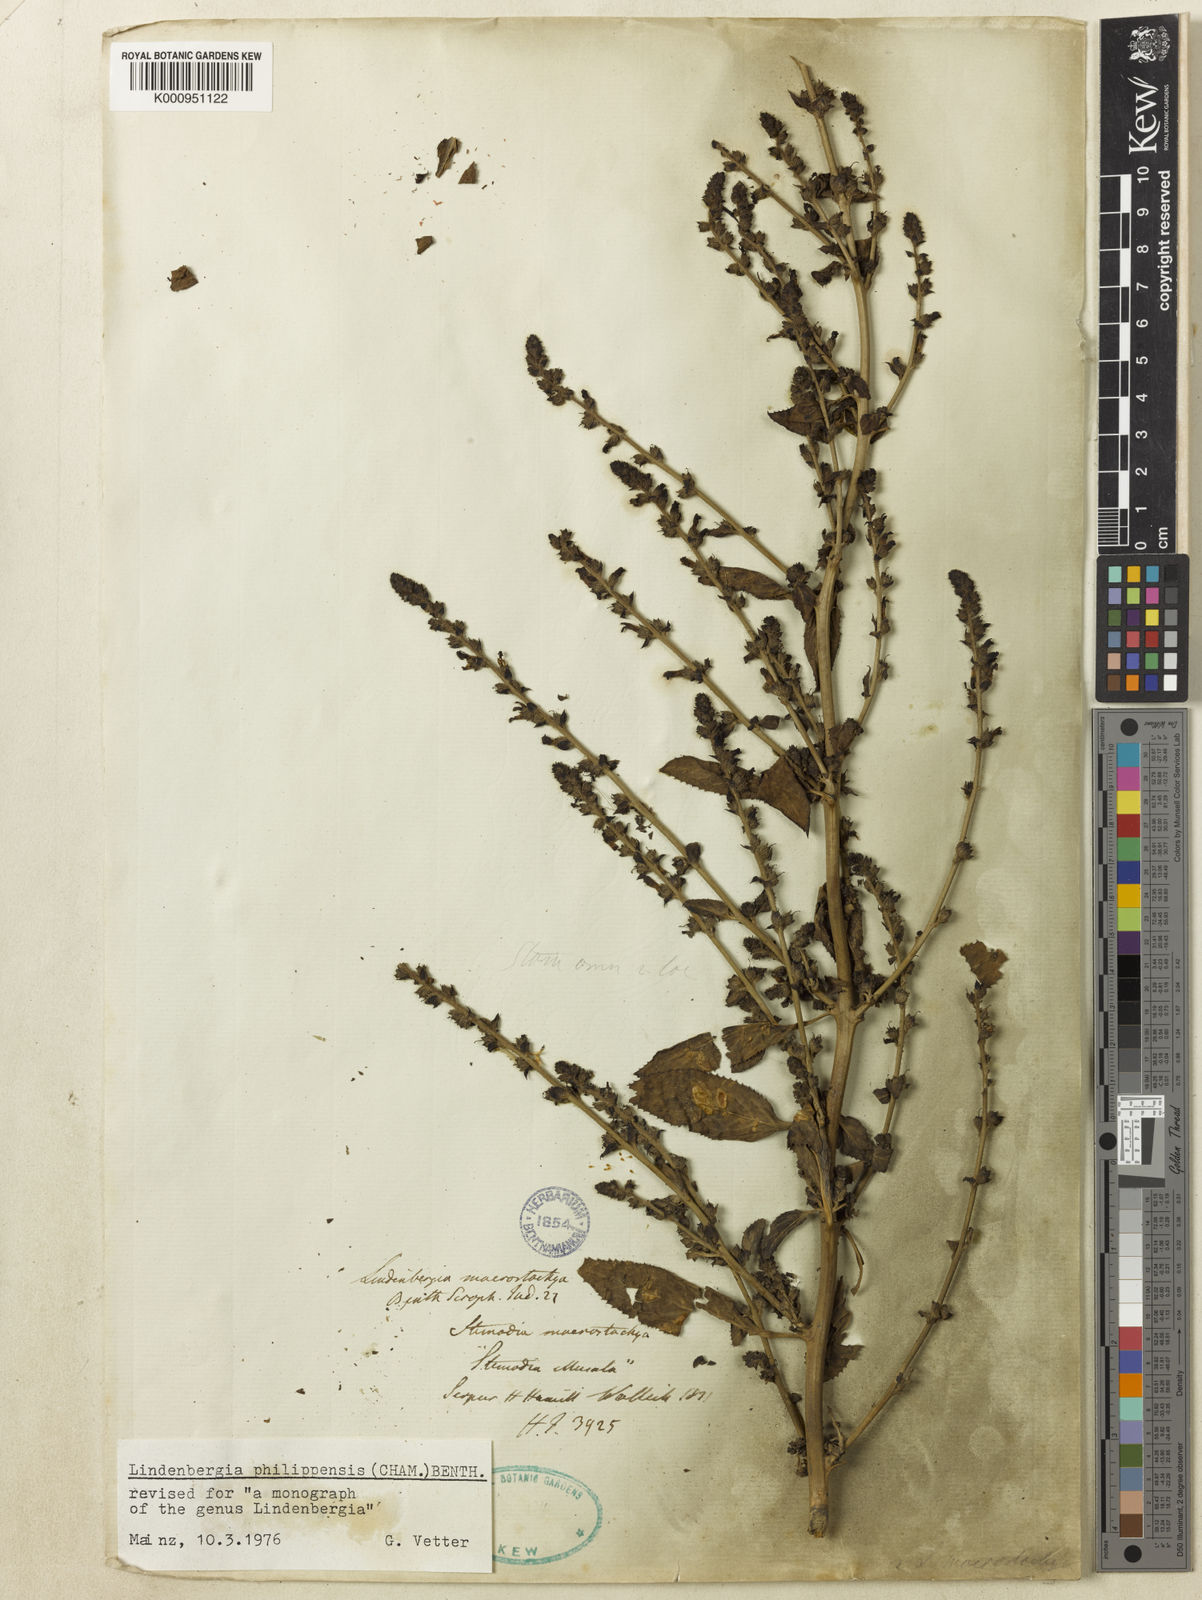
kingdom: Plantae
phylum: Tracheophyta
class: Magnoliopsida
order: Lamiales
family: Orobanchaceae
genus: Lindenbergia
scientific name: Lindenbergia macrostachya
